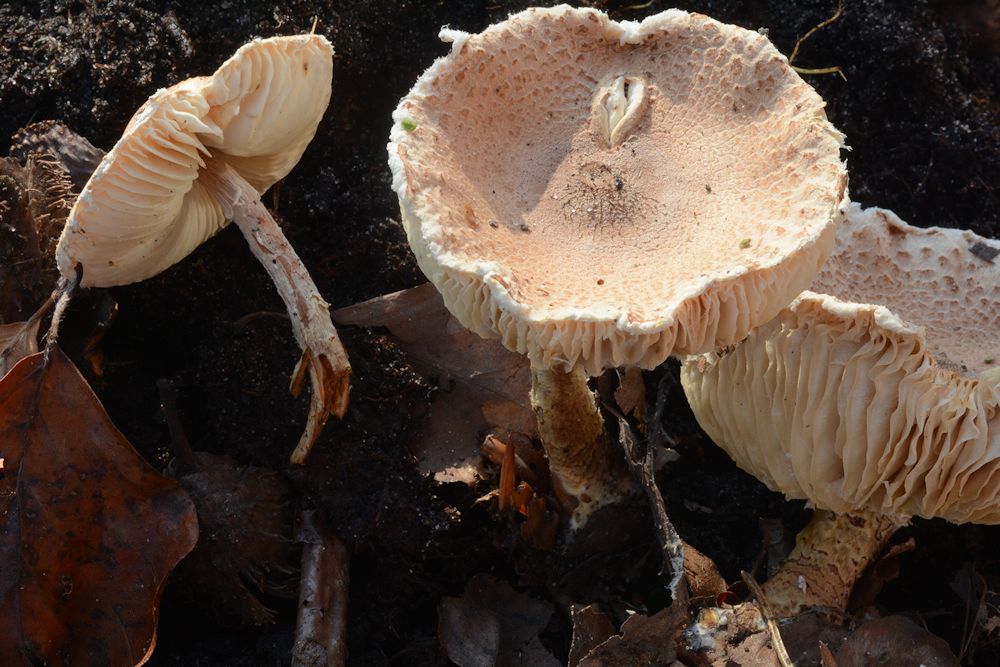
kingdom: Fungi
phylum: Basidiomycota
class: Agaricomycetes
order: Agaricales
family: Agaricaceae
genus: Lepiota
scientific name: Lepiota magnispora
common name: gulfnugget parasolhat
